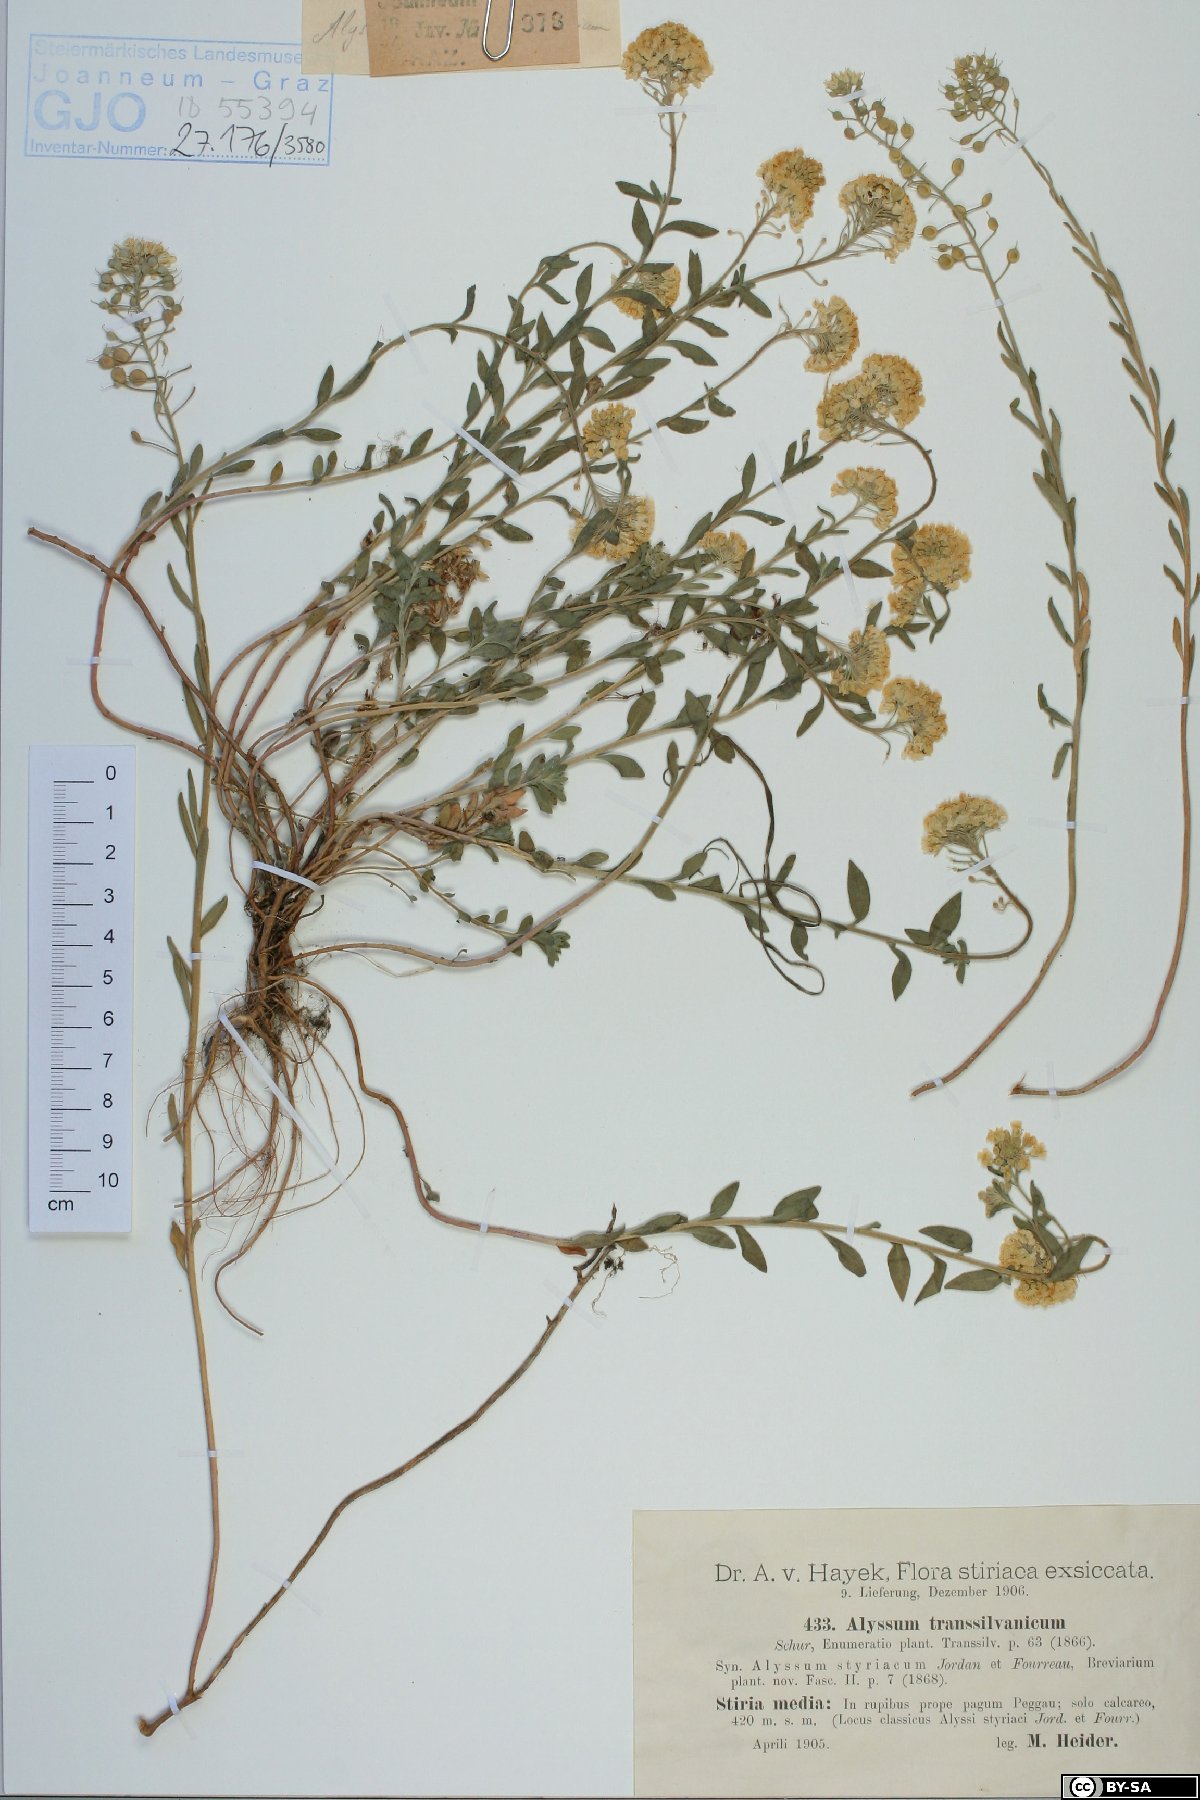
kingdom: Plantae
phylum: Tracheophyta
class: Magnoliopsida
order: Brassicales
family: Brassicaceae
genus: Alyssum
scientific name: Alyssum repens
